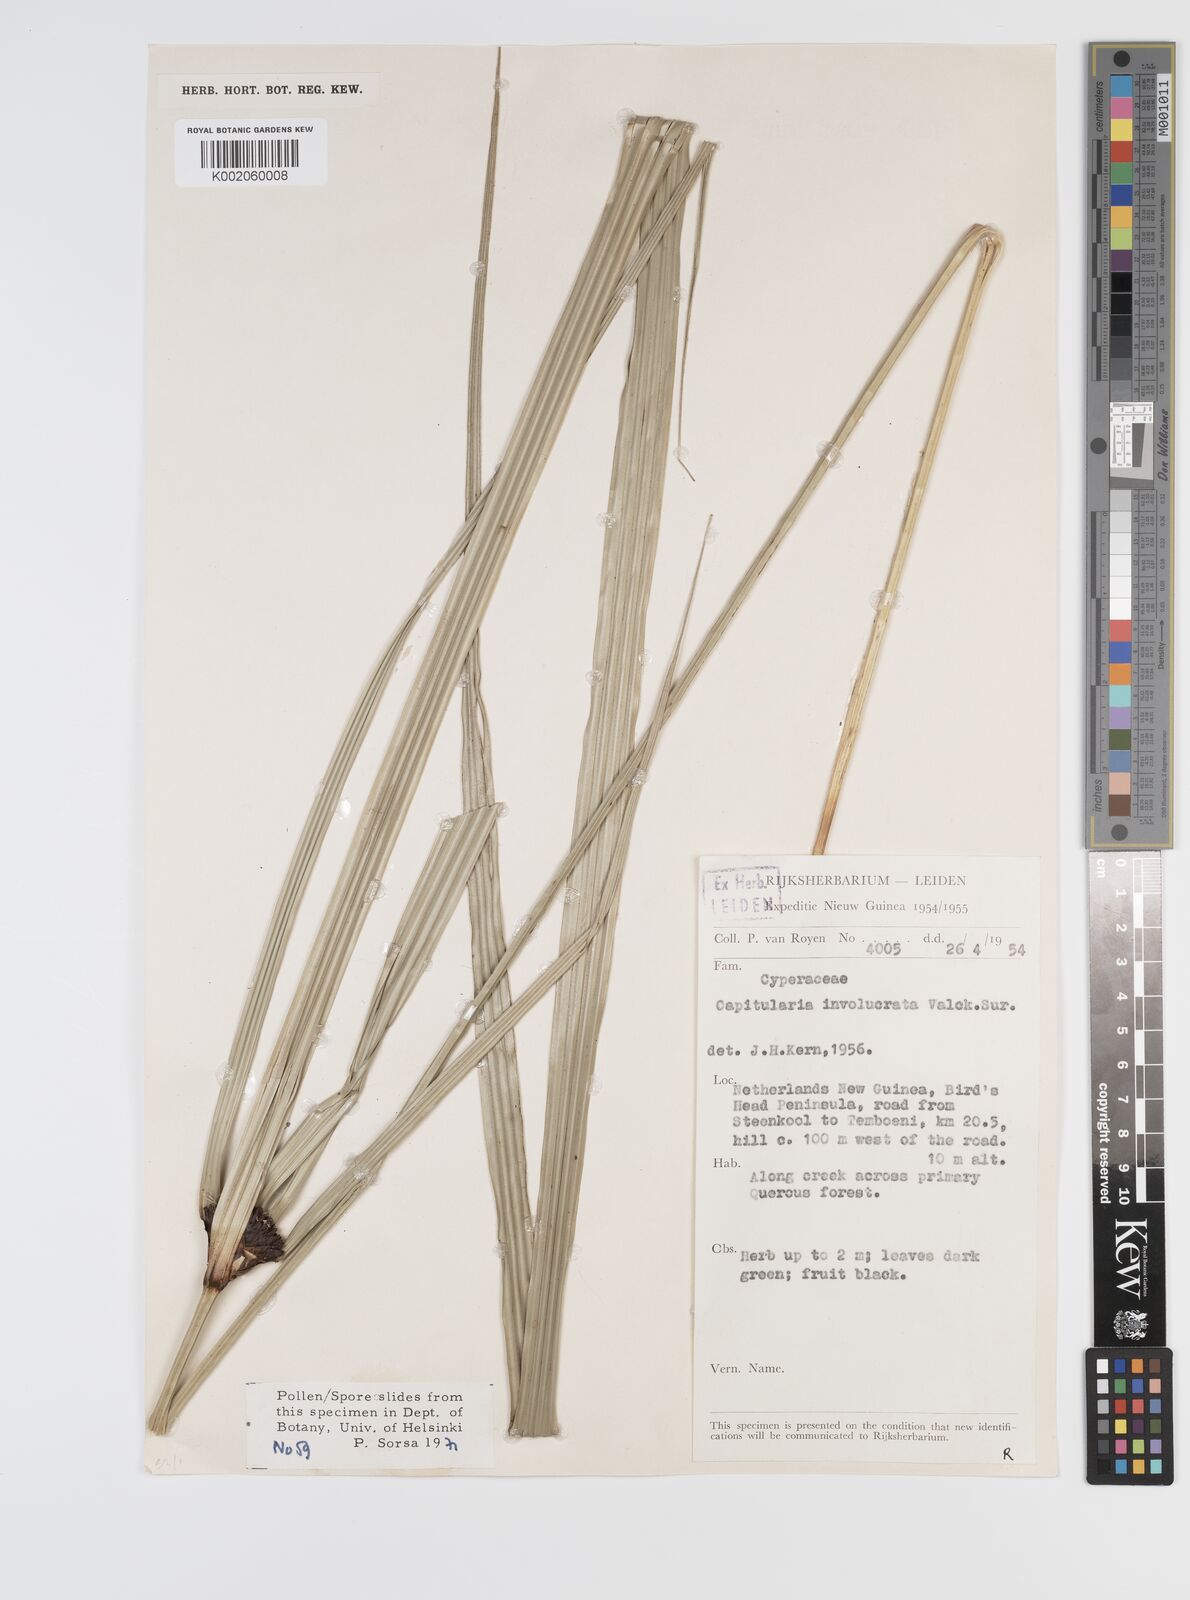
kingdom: Plantae
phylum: Tracheophyta
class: Liliopsida
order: Poales
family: Cyperaceae
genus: Capitularina
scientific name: Capitularina involucrata
